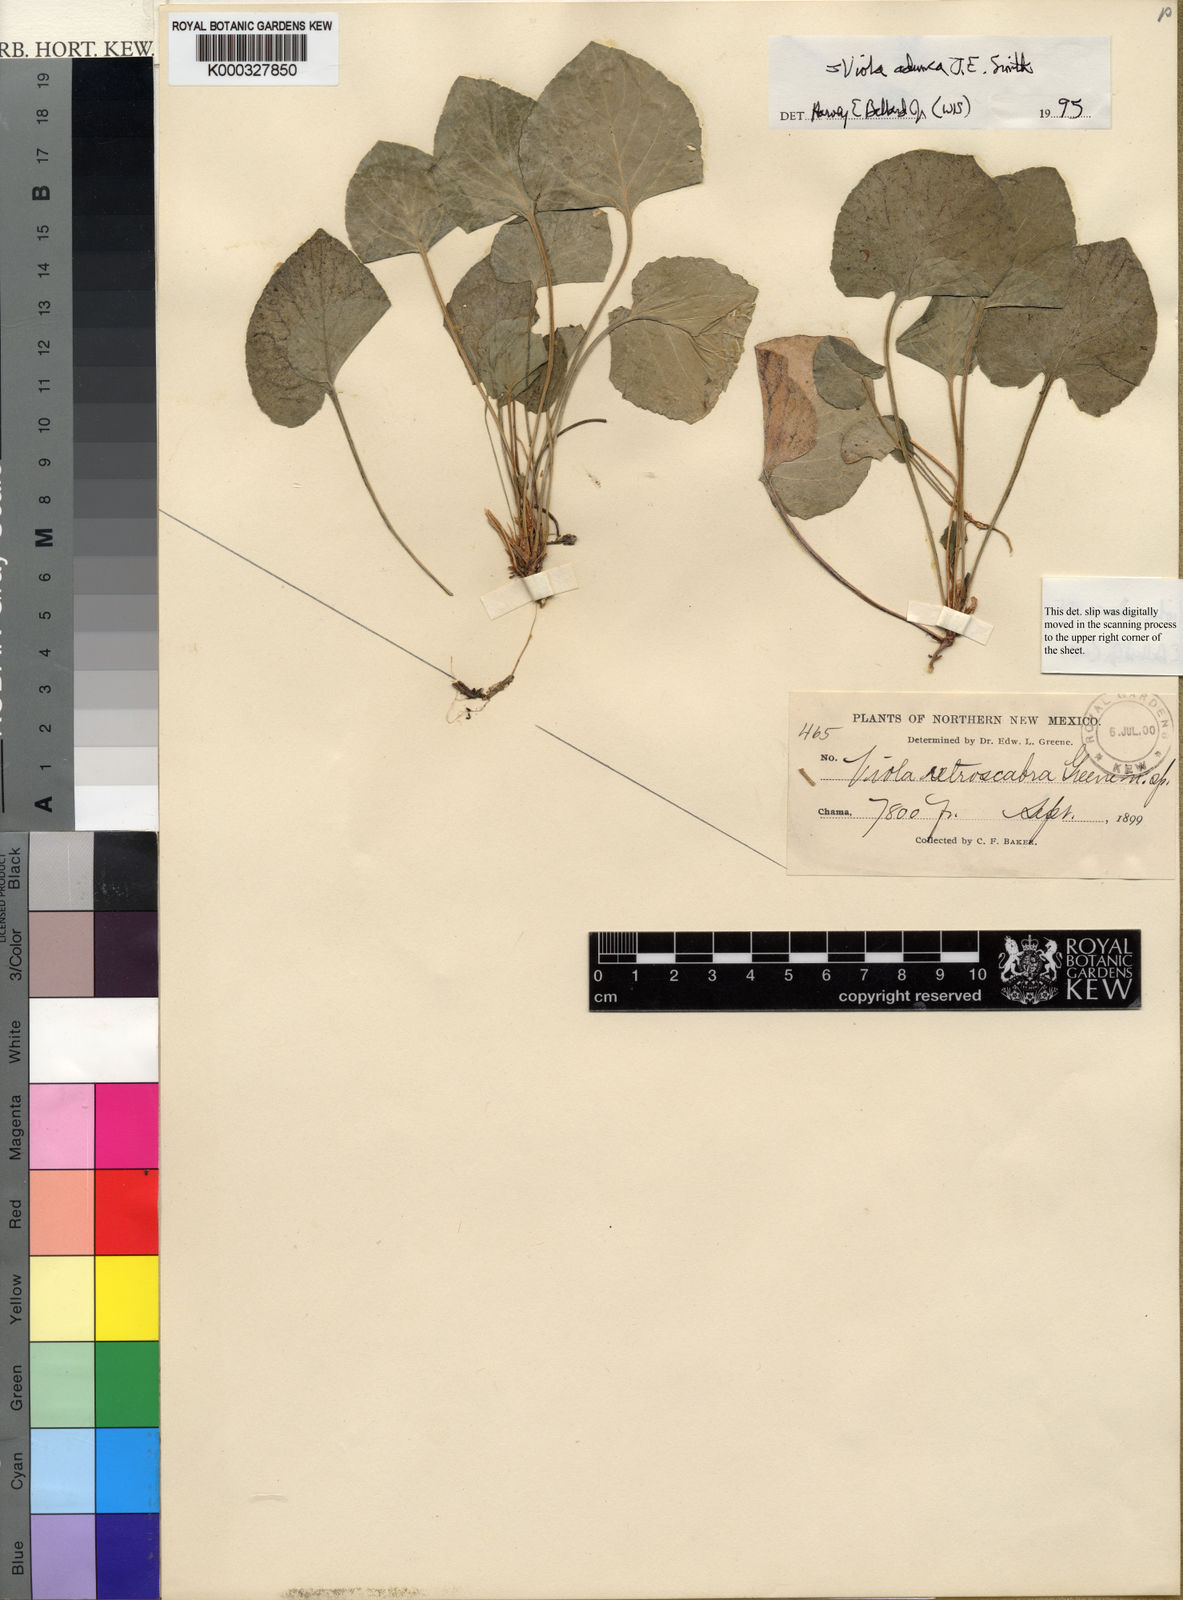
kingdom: Plantae
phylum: Tracheophyta
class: Magnoliopsida
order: Malpighiales
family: Violaceae
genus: Viola
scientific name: Viola adunca
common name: Sand violet
